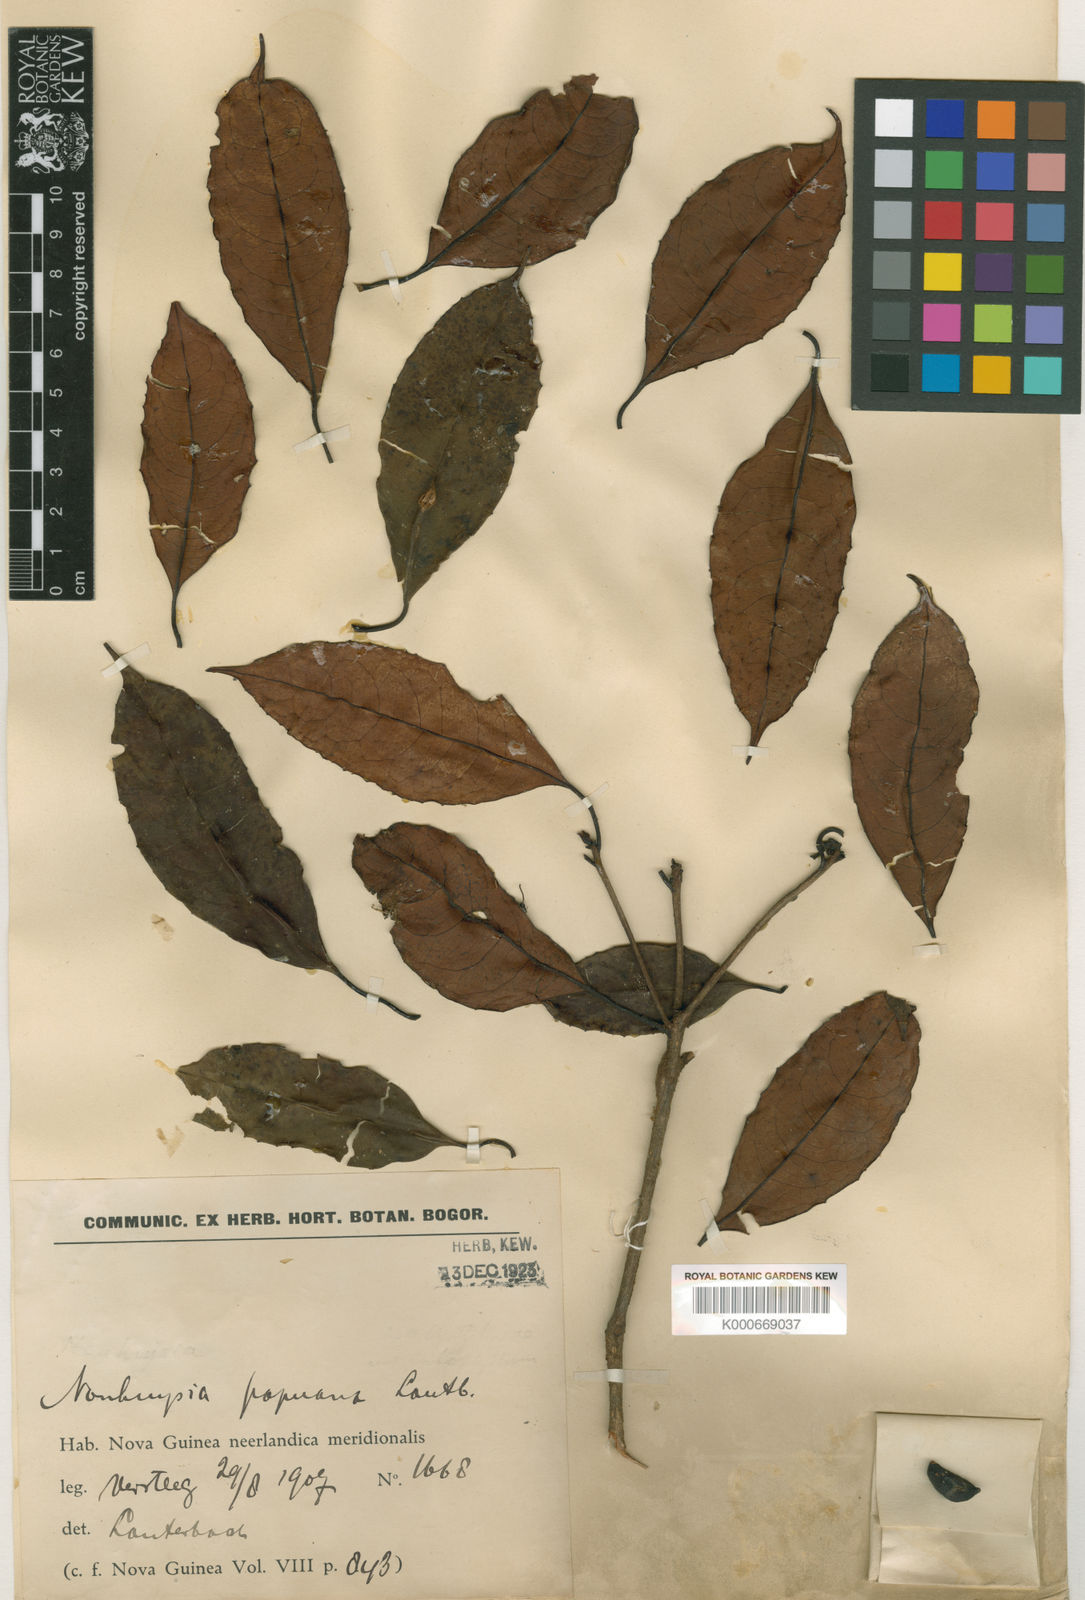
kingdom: Plantae
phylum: Tracheophyta
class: Magnoliopsida
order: Paracryphiales
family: Paracryphiaceae
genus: Sphenostemon
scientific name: Sphenostemon papuanus
